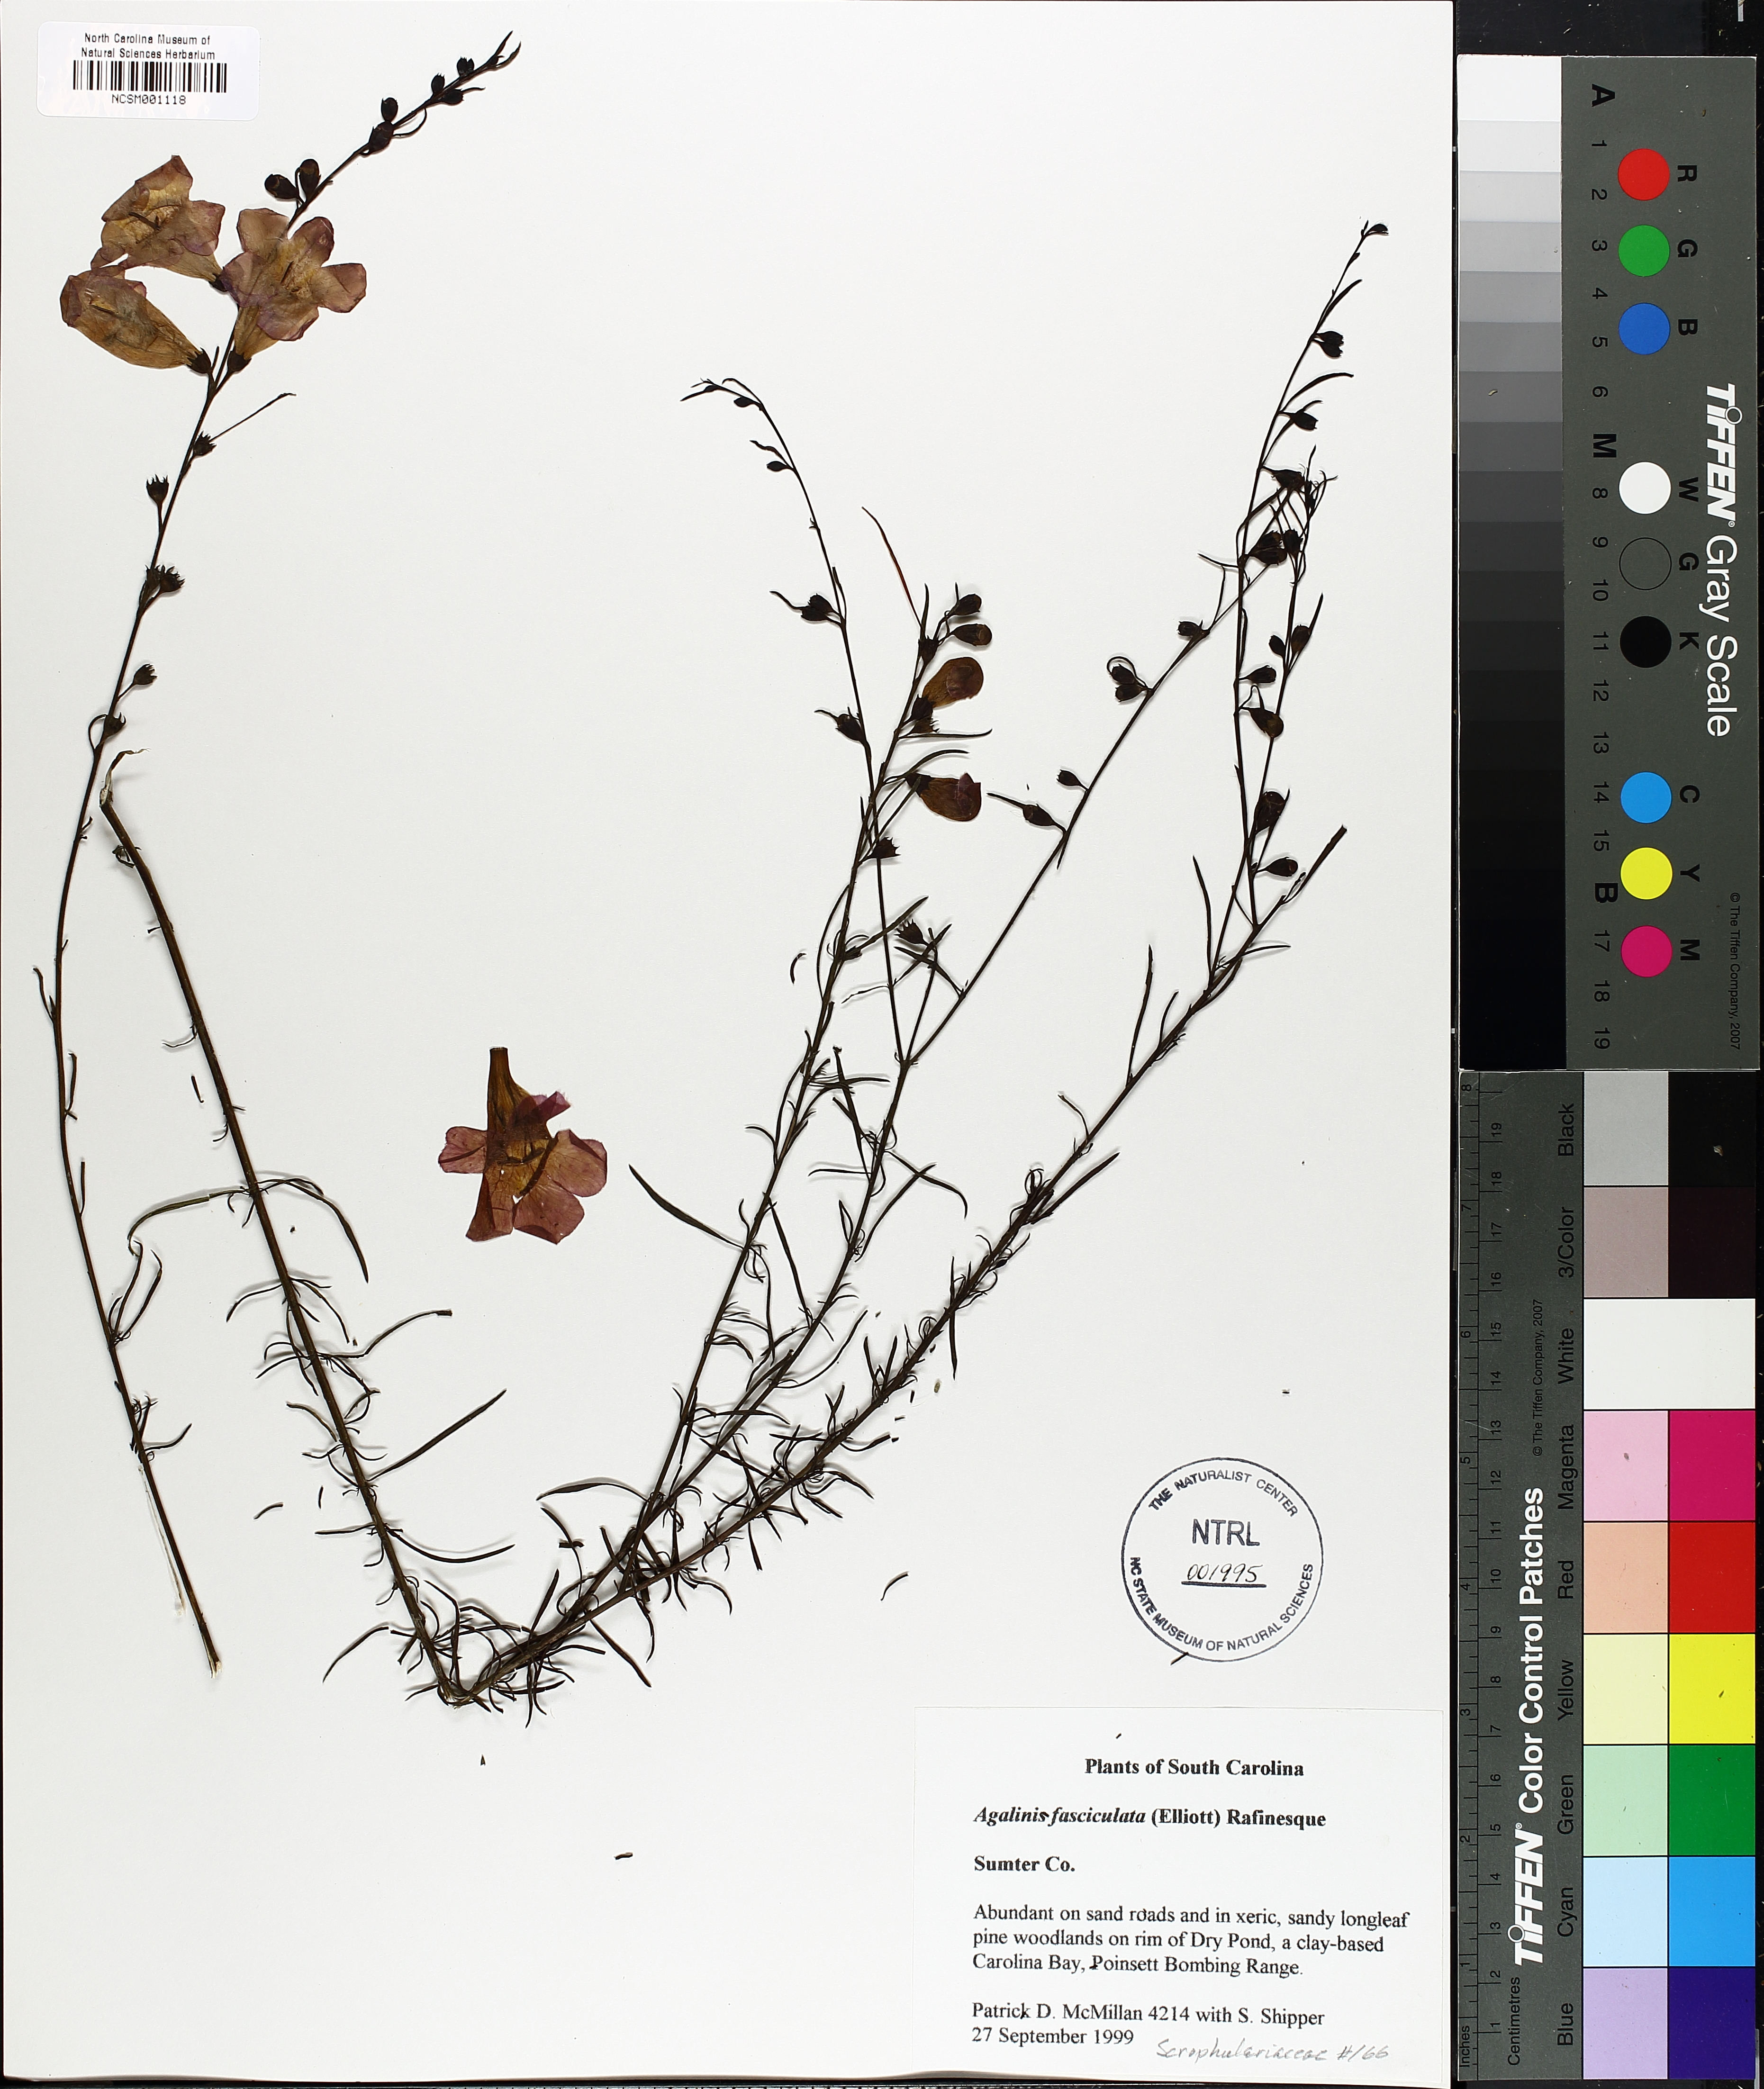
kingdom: Plantae
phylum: Tracheophyta
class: Magnoliopsida
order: Lamiales
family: Orobanchaceae
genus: Agalinis
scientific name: Agalinis fasciculata
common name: Beach false foxglove
